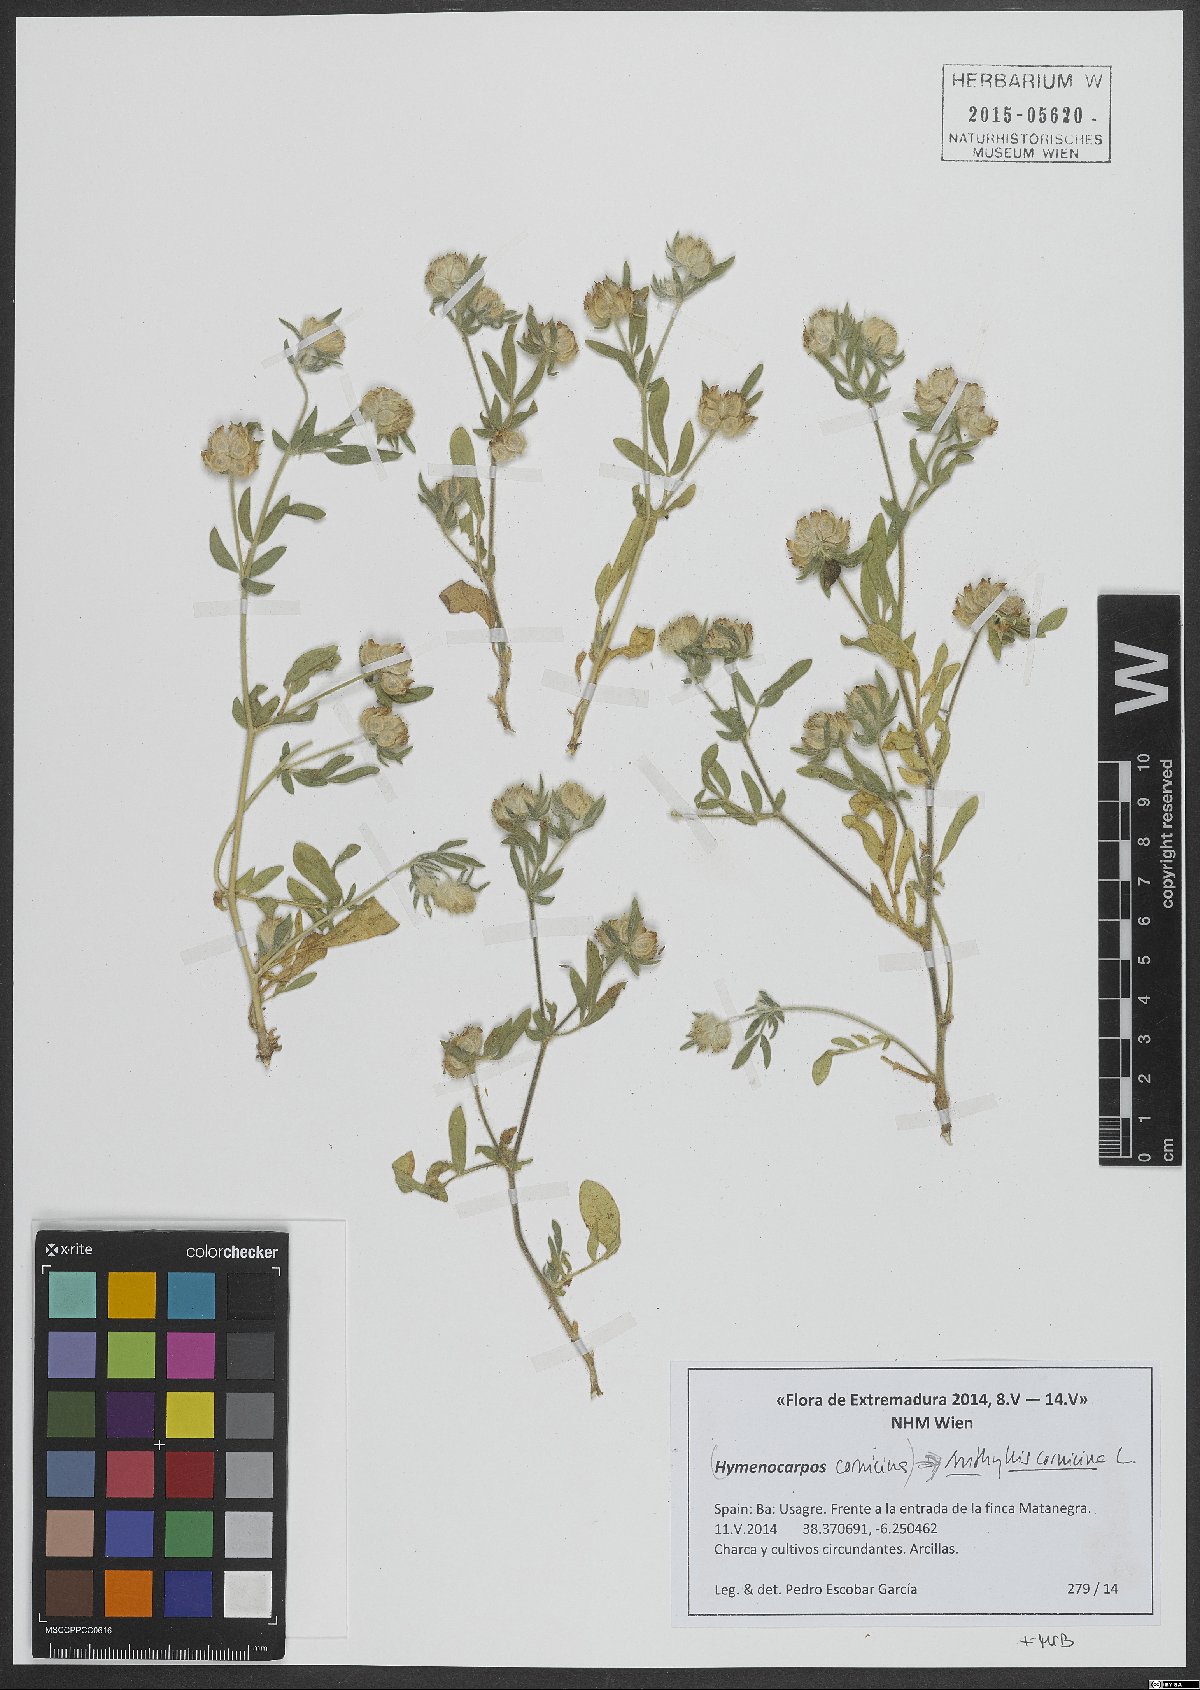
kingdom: Plantae
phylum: Tracheophyta
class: Magnoliopsida
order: Fabales
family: Fabaceae
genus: Anthyllis
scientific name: Anthyllis cornicina
